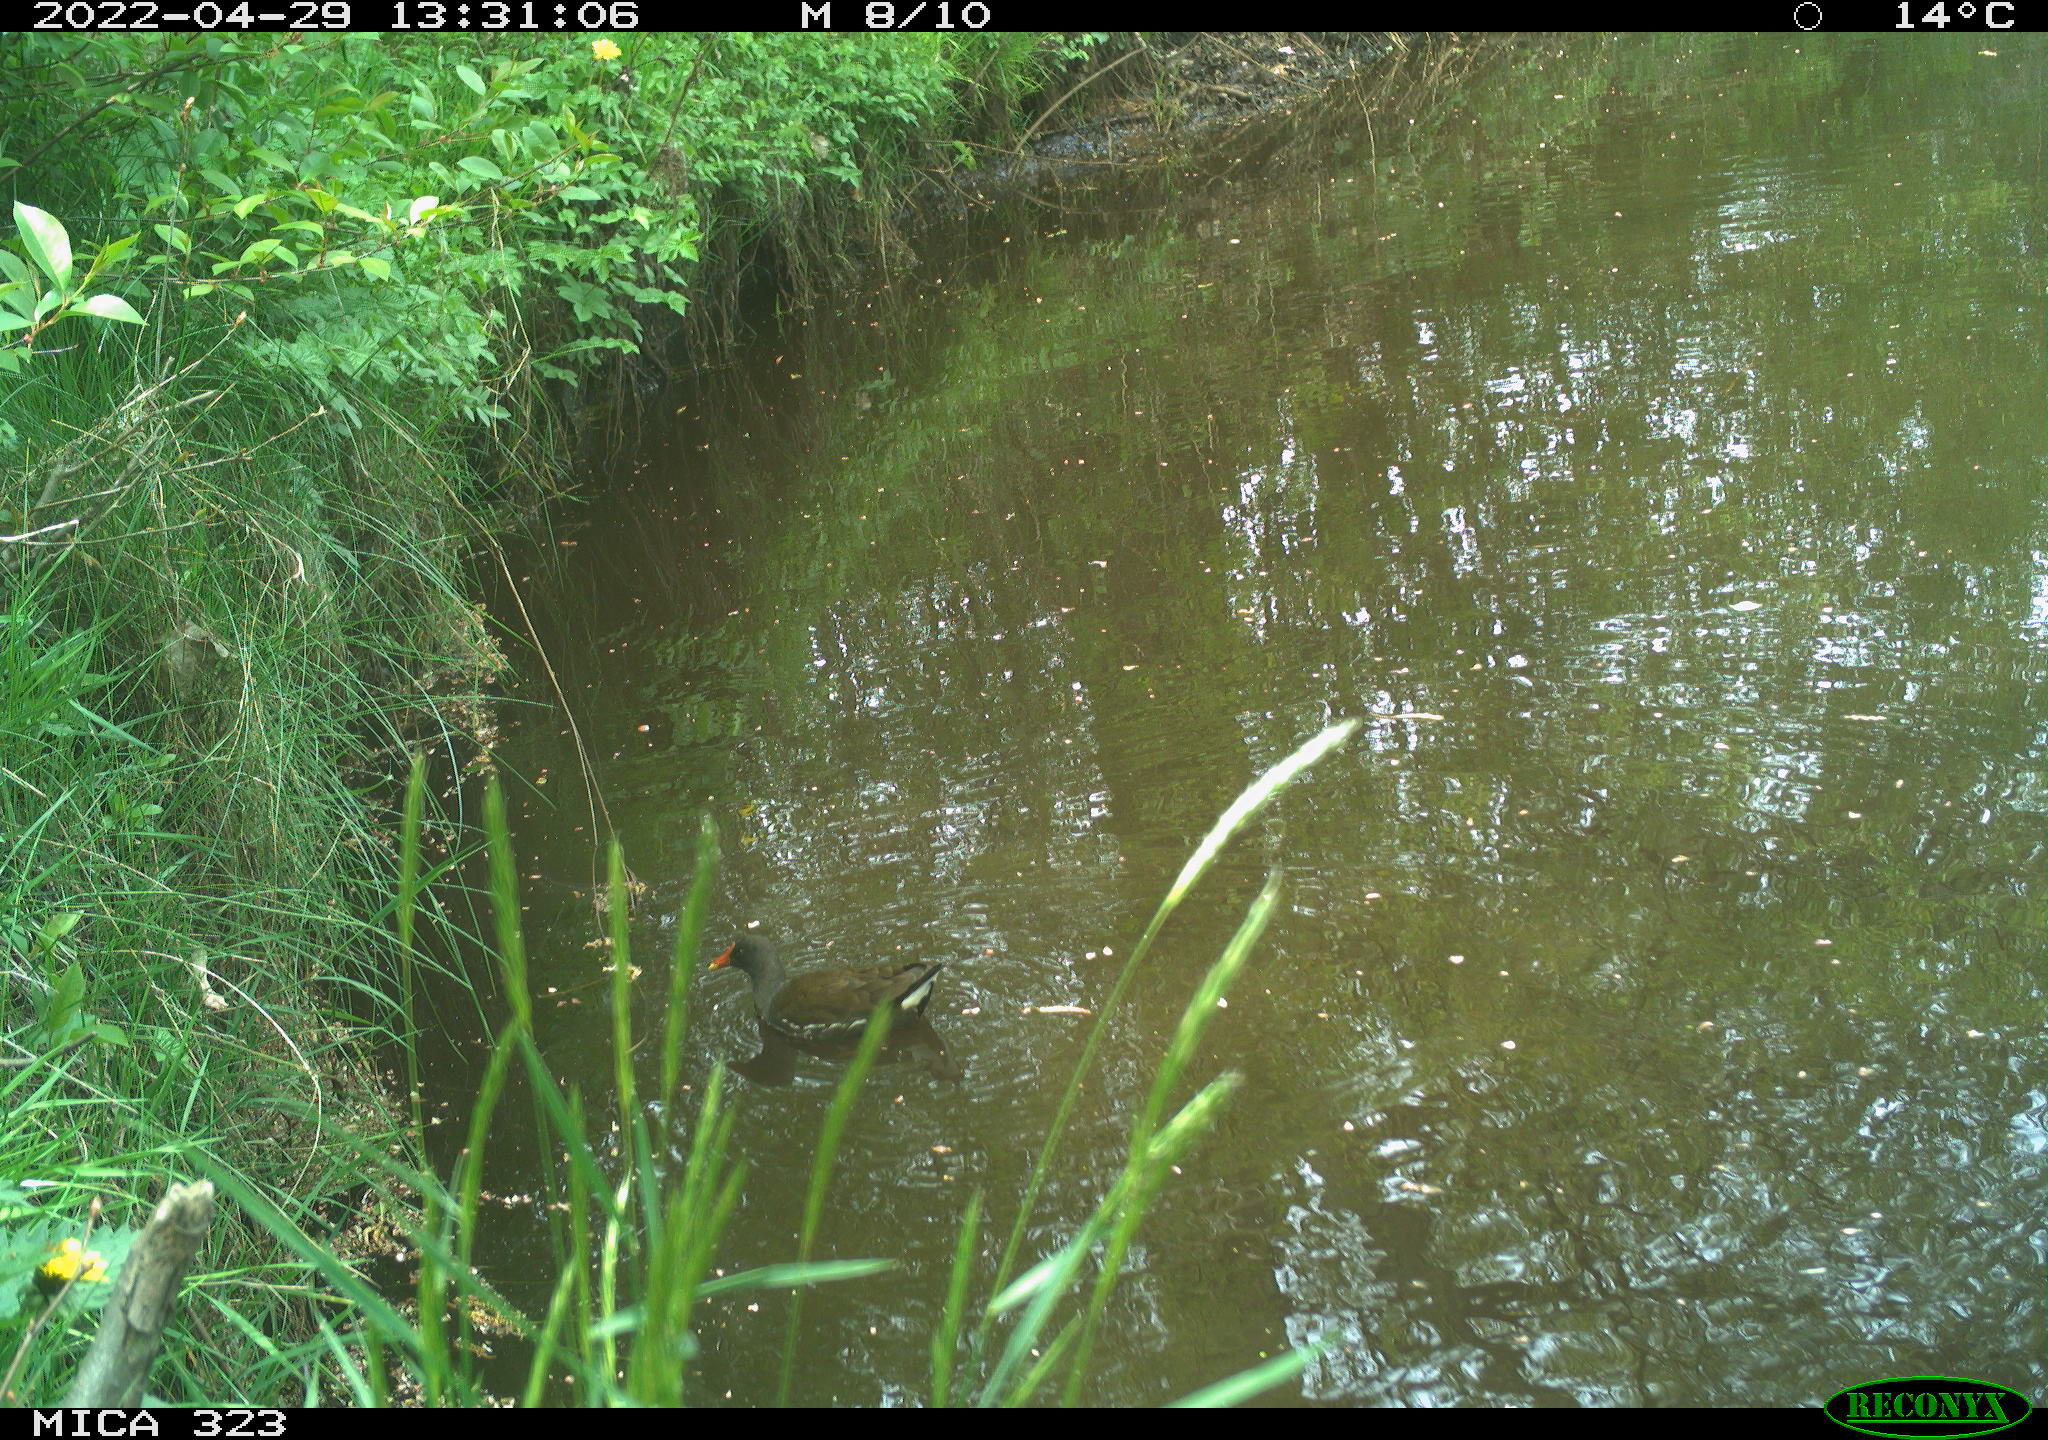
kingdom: Animalia
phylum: Chordata
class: Aves
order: Gruiformes
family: Rallidae
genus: Gallinula
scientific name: Gallinula chloropus
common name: Common moorhen
